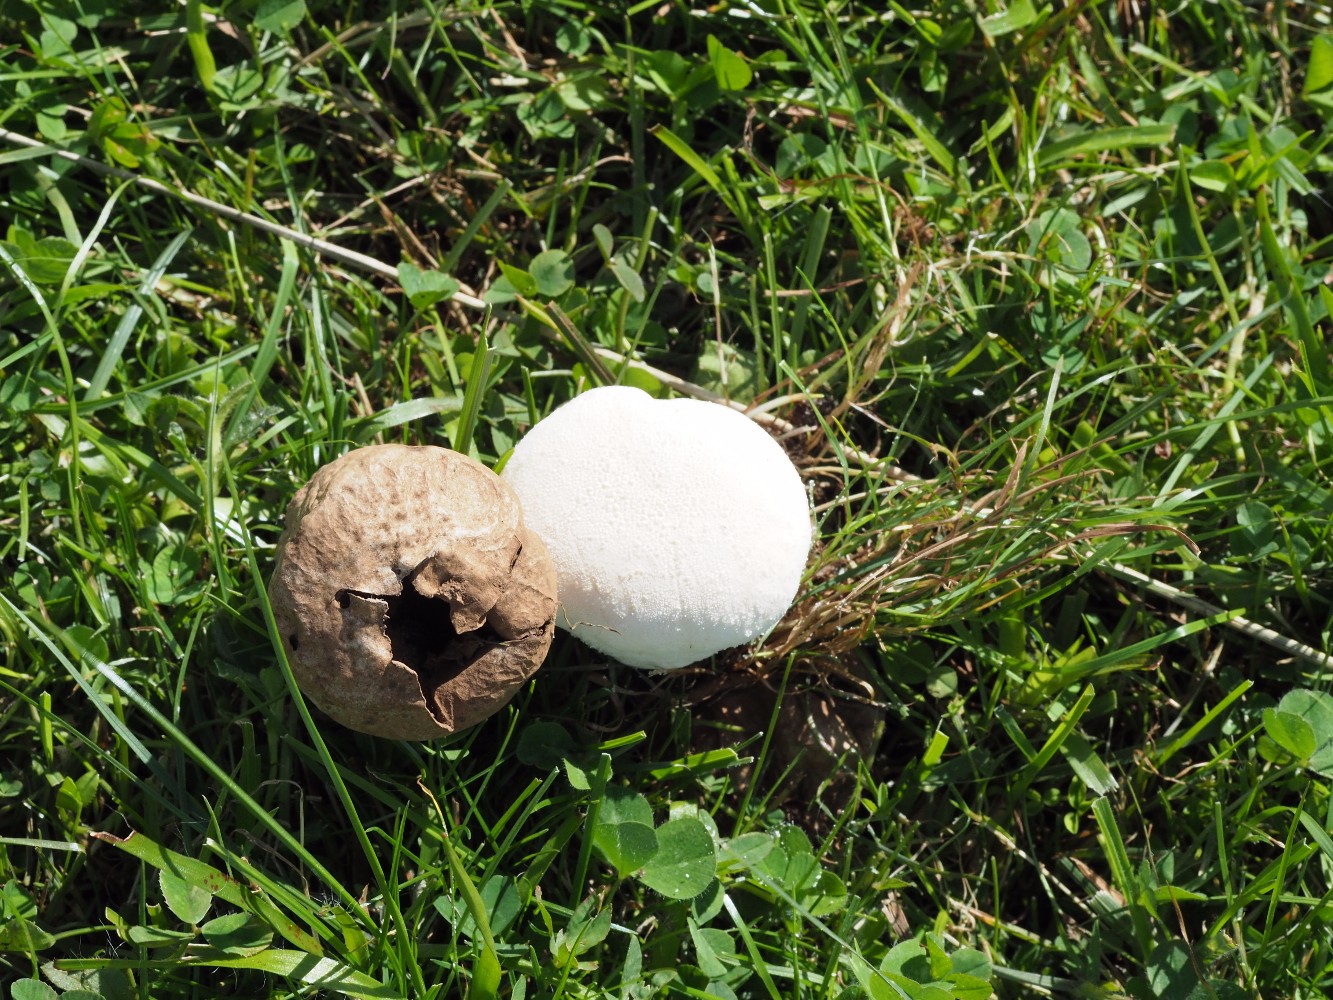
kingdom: Fungi
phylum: Basidiomycota
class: Agaricomycetes
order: Agaricales
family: Lycoperdaceae
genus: Lycoperdon
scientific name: Lycoperdon pratense
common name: flad støvbold
